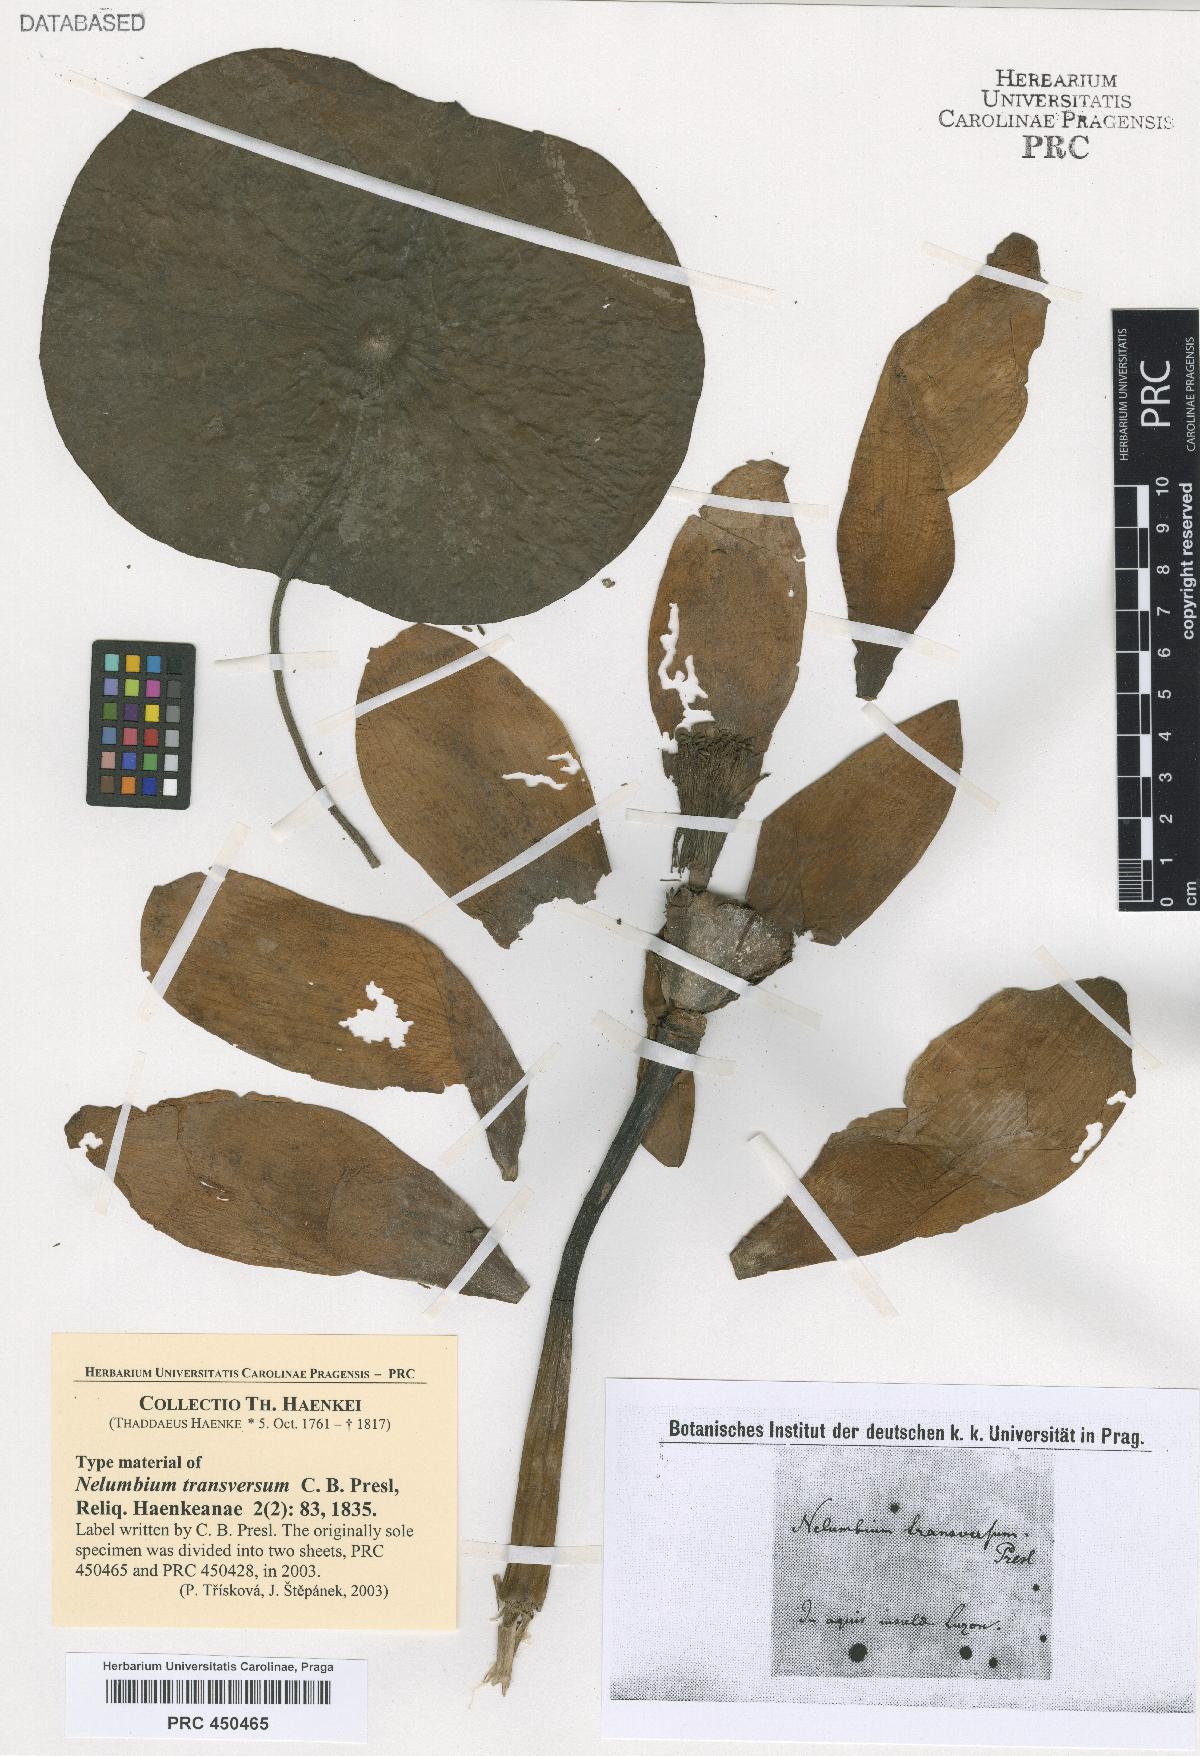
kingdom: Plantae
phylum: Tracheophyta
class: Magnoliopsida
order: Proteales
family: Nelumbonaceae
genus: Nelumbo
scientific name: Nelumbo transversa
